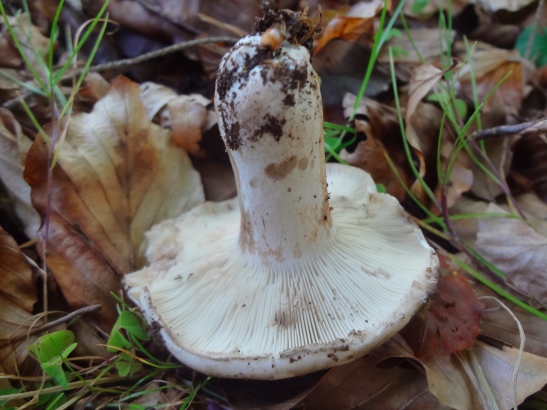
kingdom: Fungi
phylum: Basidiomycota
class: Agaricomycetes
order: Russulales
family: Russulaceae
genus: Russula
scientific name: Russula acrifolia
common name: skarpbladet skørhat
